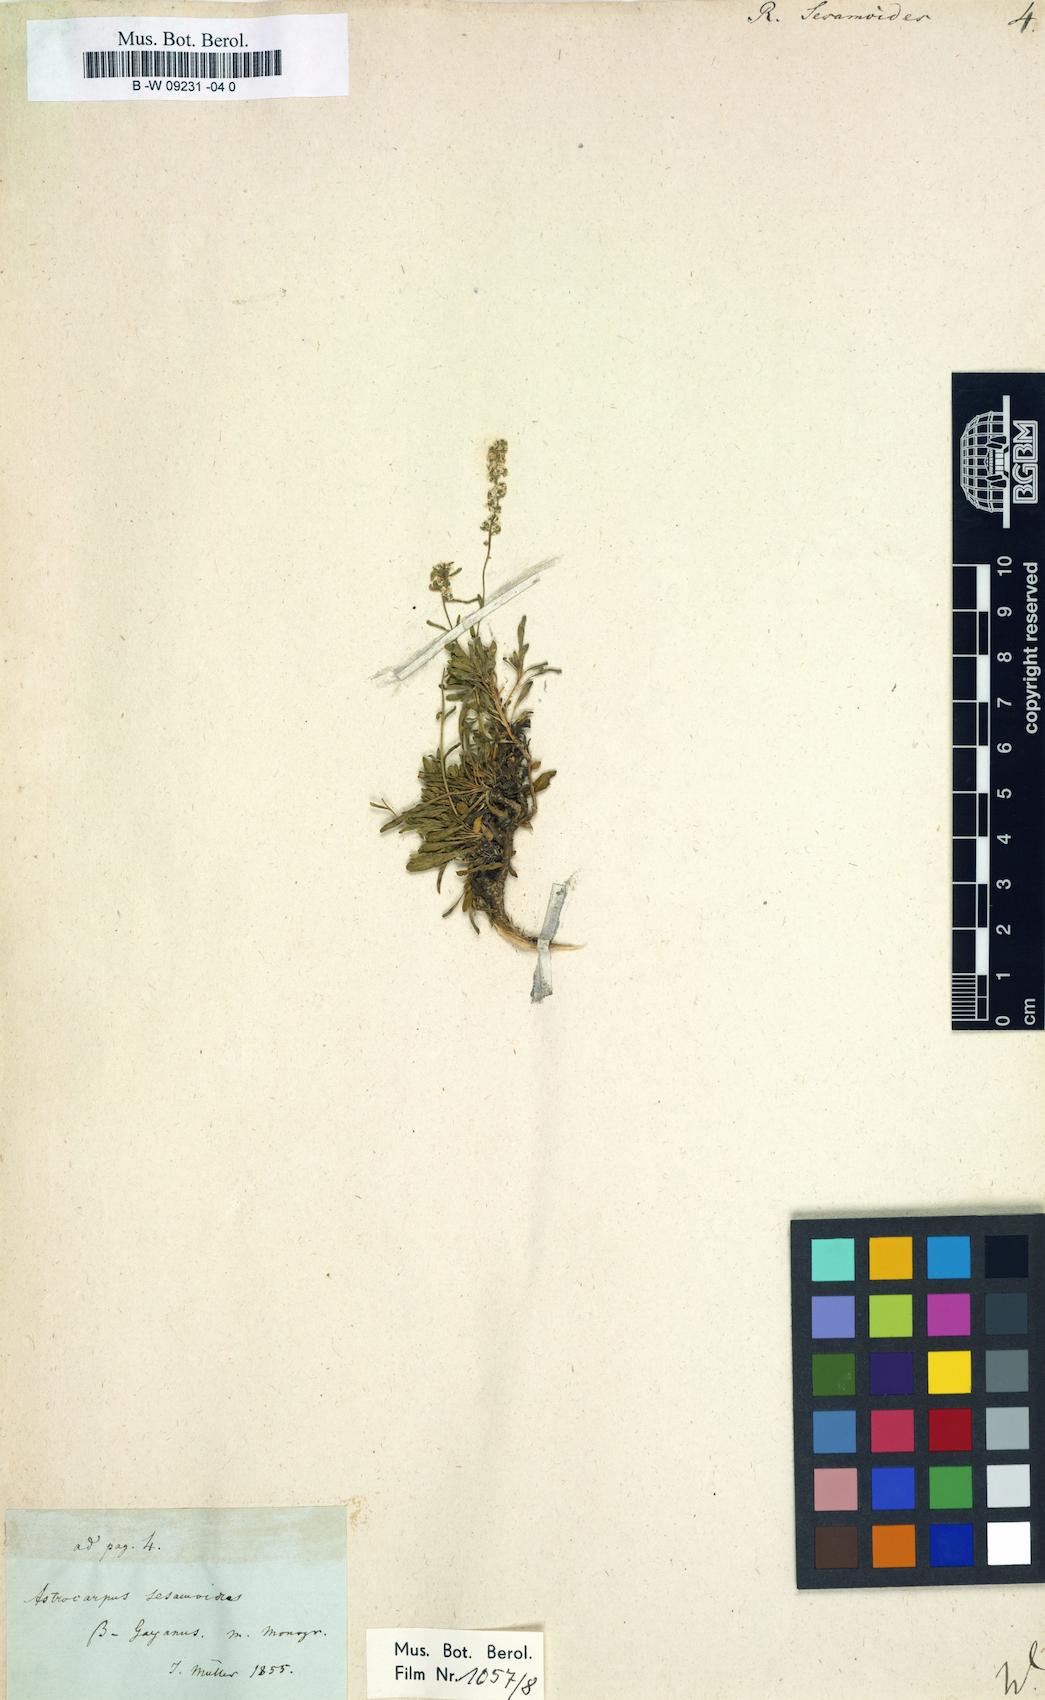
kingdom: Plantae
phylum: Tracheophyta
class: Magnoliopsida
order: Brassicales
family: Resedaceae
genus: Sesamoides
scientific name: Sesamoides
